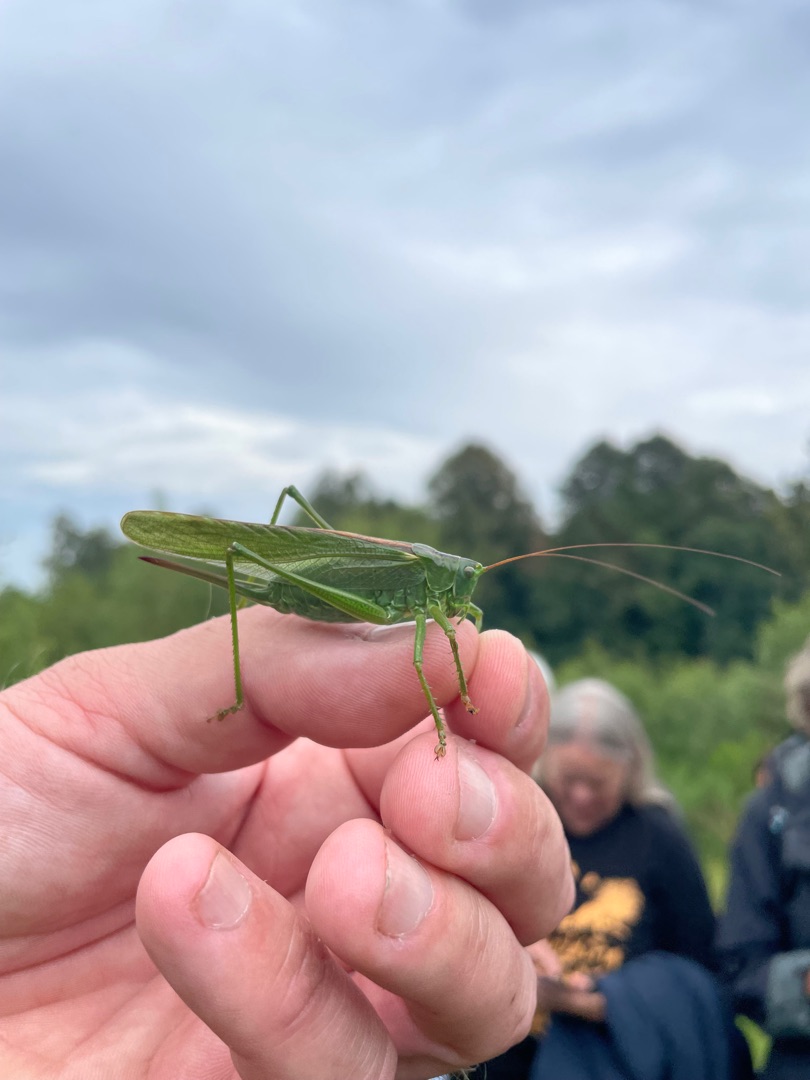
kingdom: Animalia
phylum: Arthropoda
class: Insecta
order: Orthoptera
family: Tettigoniidae
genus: Tettigonia
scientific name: Tettigonia viridissima
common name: Stor grøn løvgræshoppe
